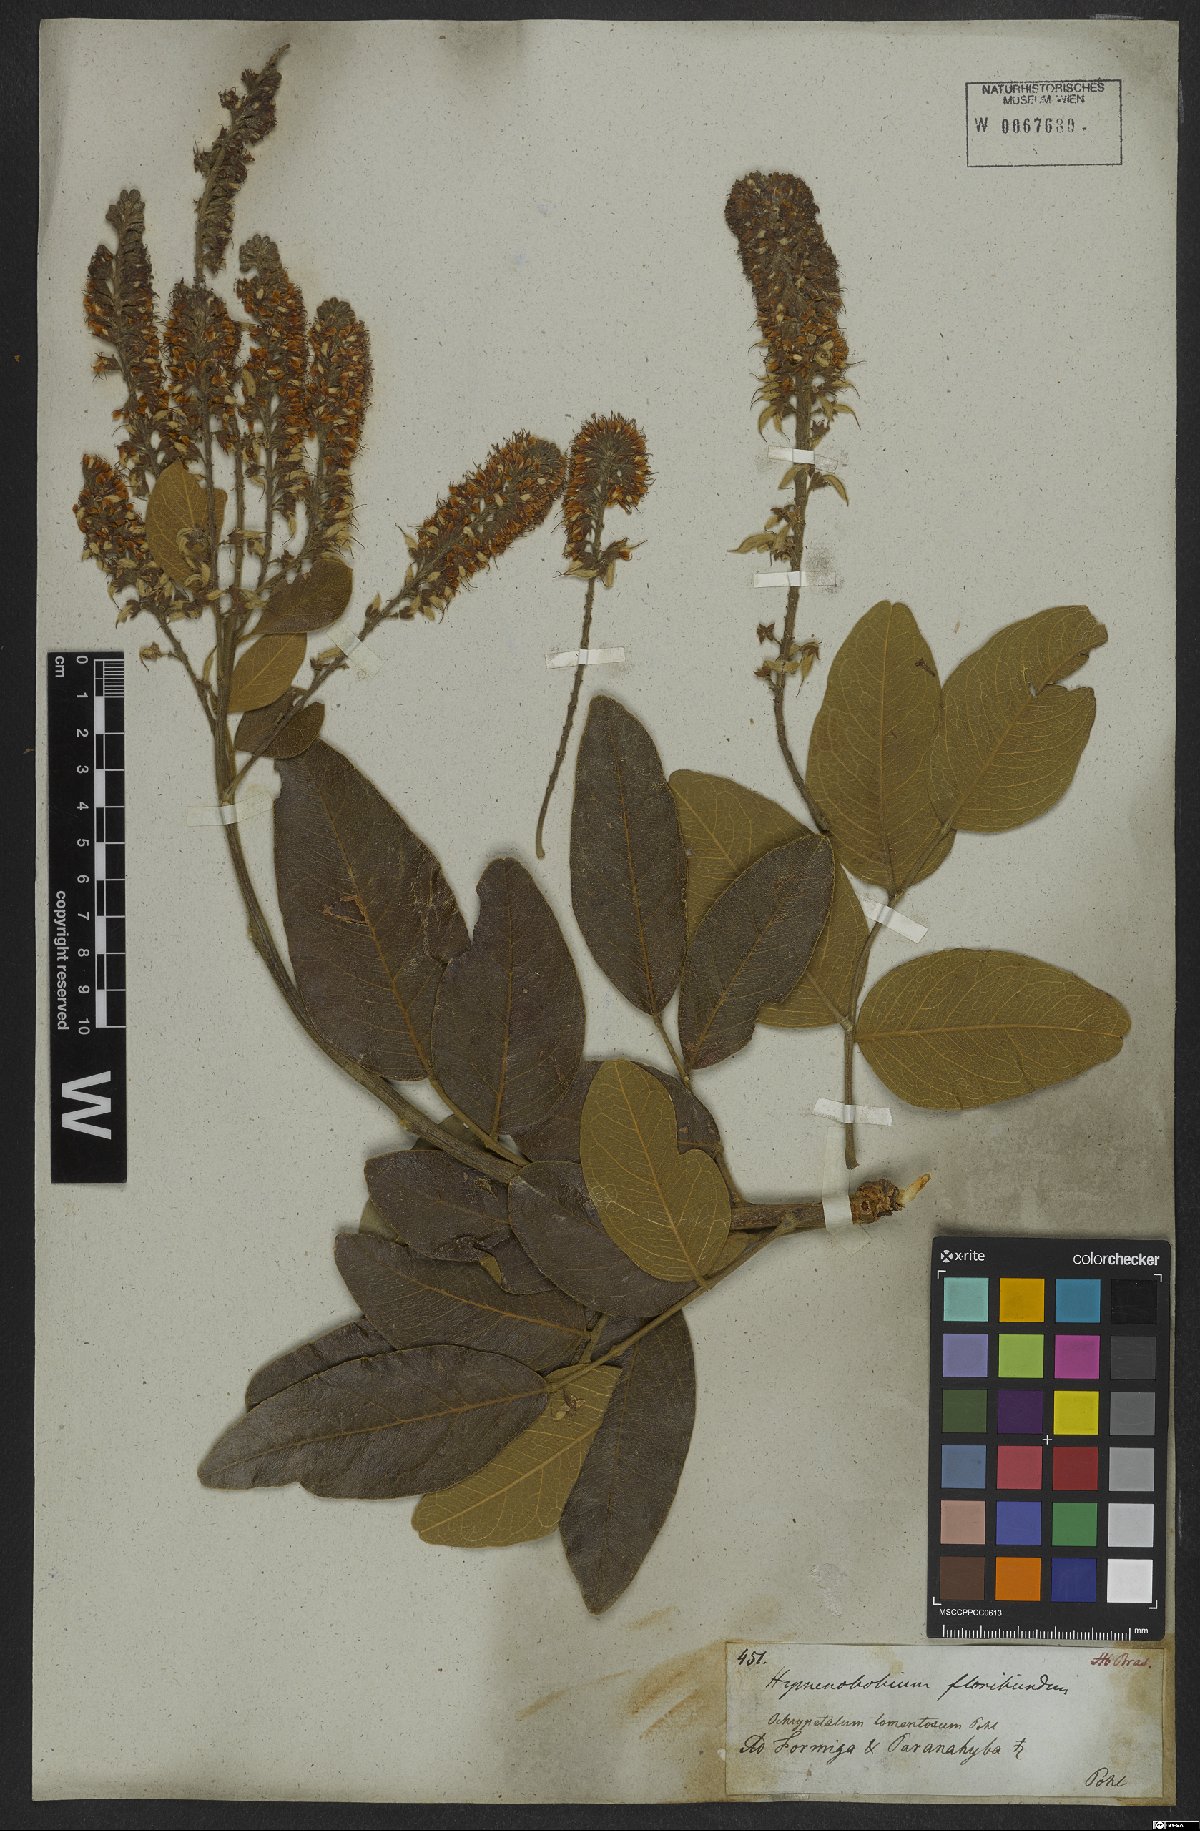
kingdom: Plantae
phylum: Tracheophyta
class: Magnoliopsida
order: Fabales
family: Fabaceae
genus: Hymenolobium
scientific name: Hymenolobium
